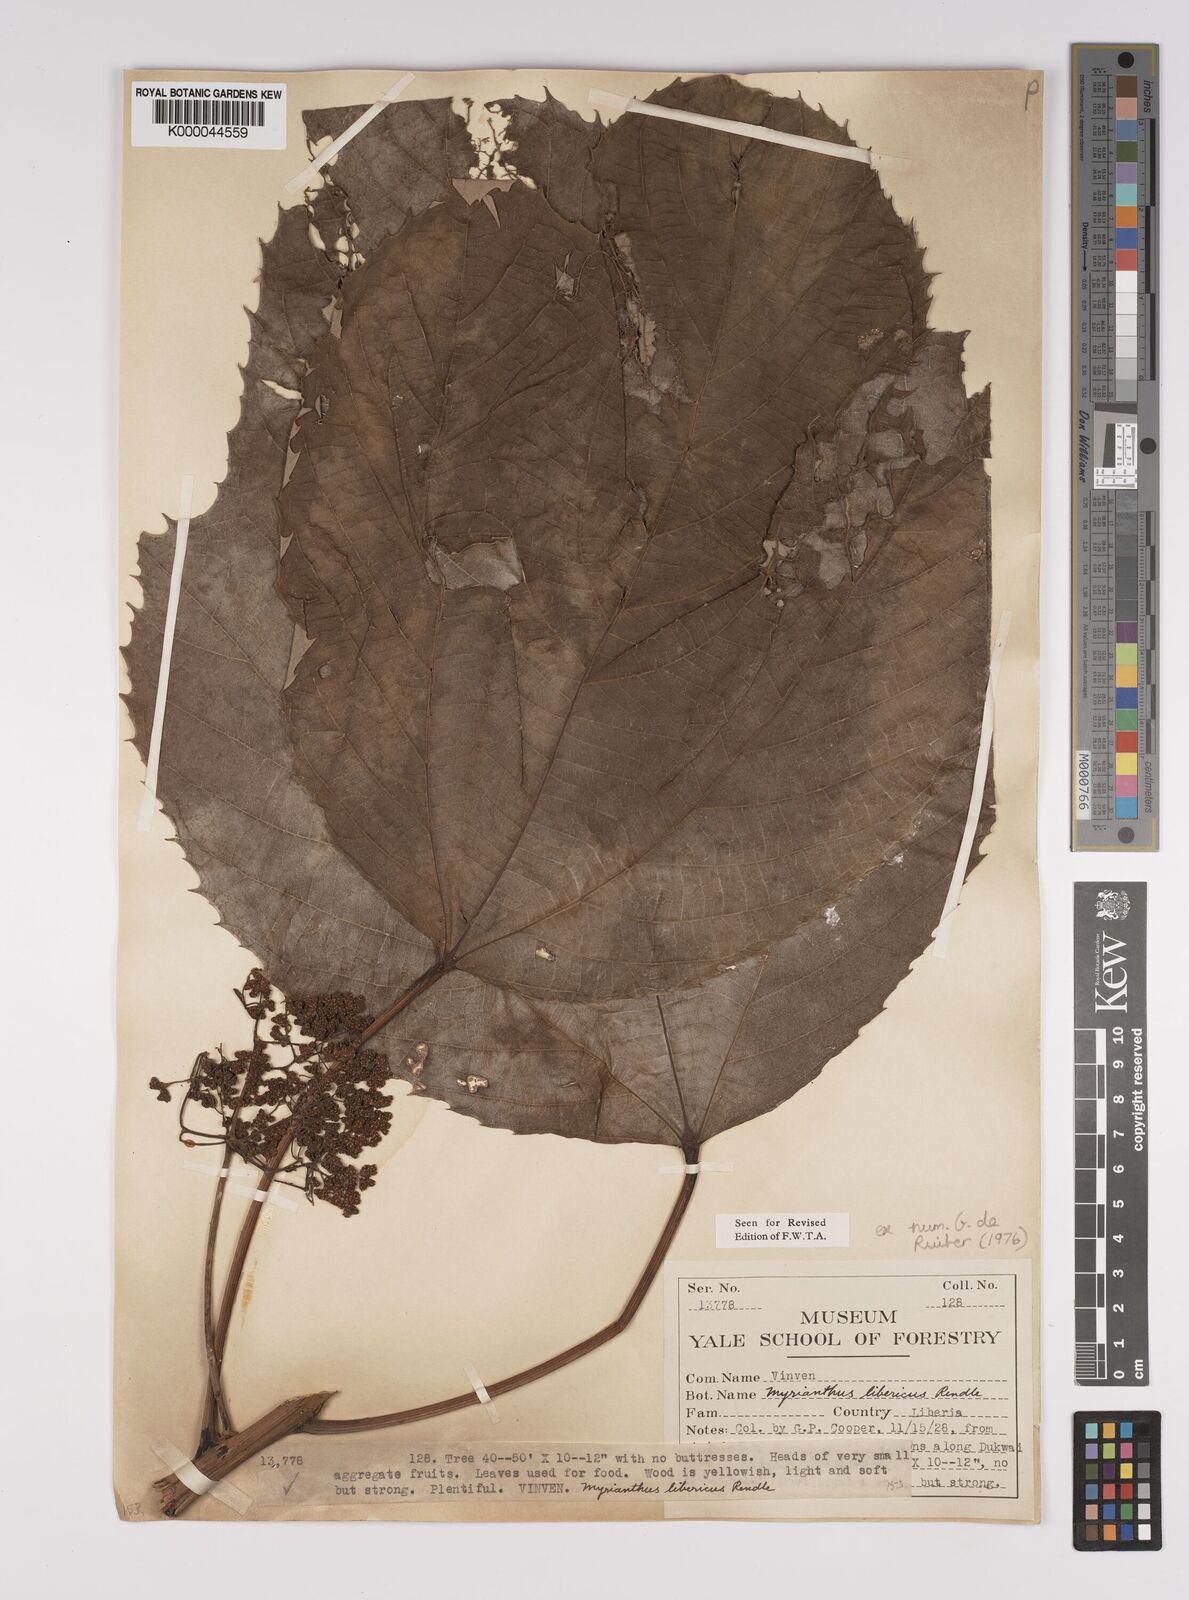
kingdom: Plantae
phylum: Tracheophyta
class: Magnoliopsida
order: Rosales
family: Urticaceae
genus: Myrianthus
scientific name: Myrianthus libericus
